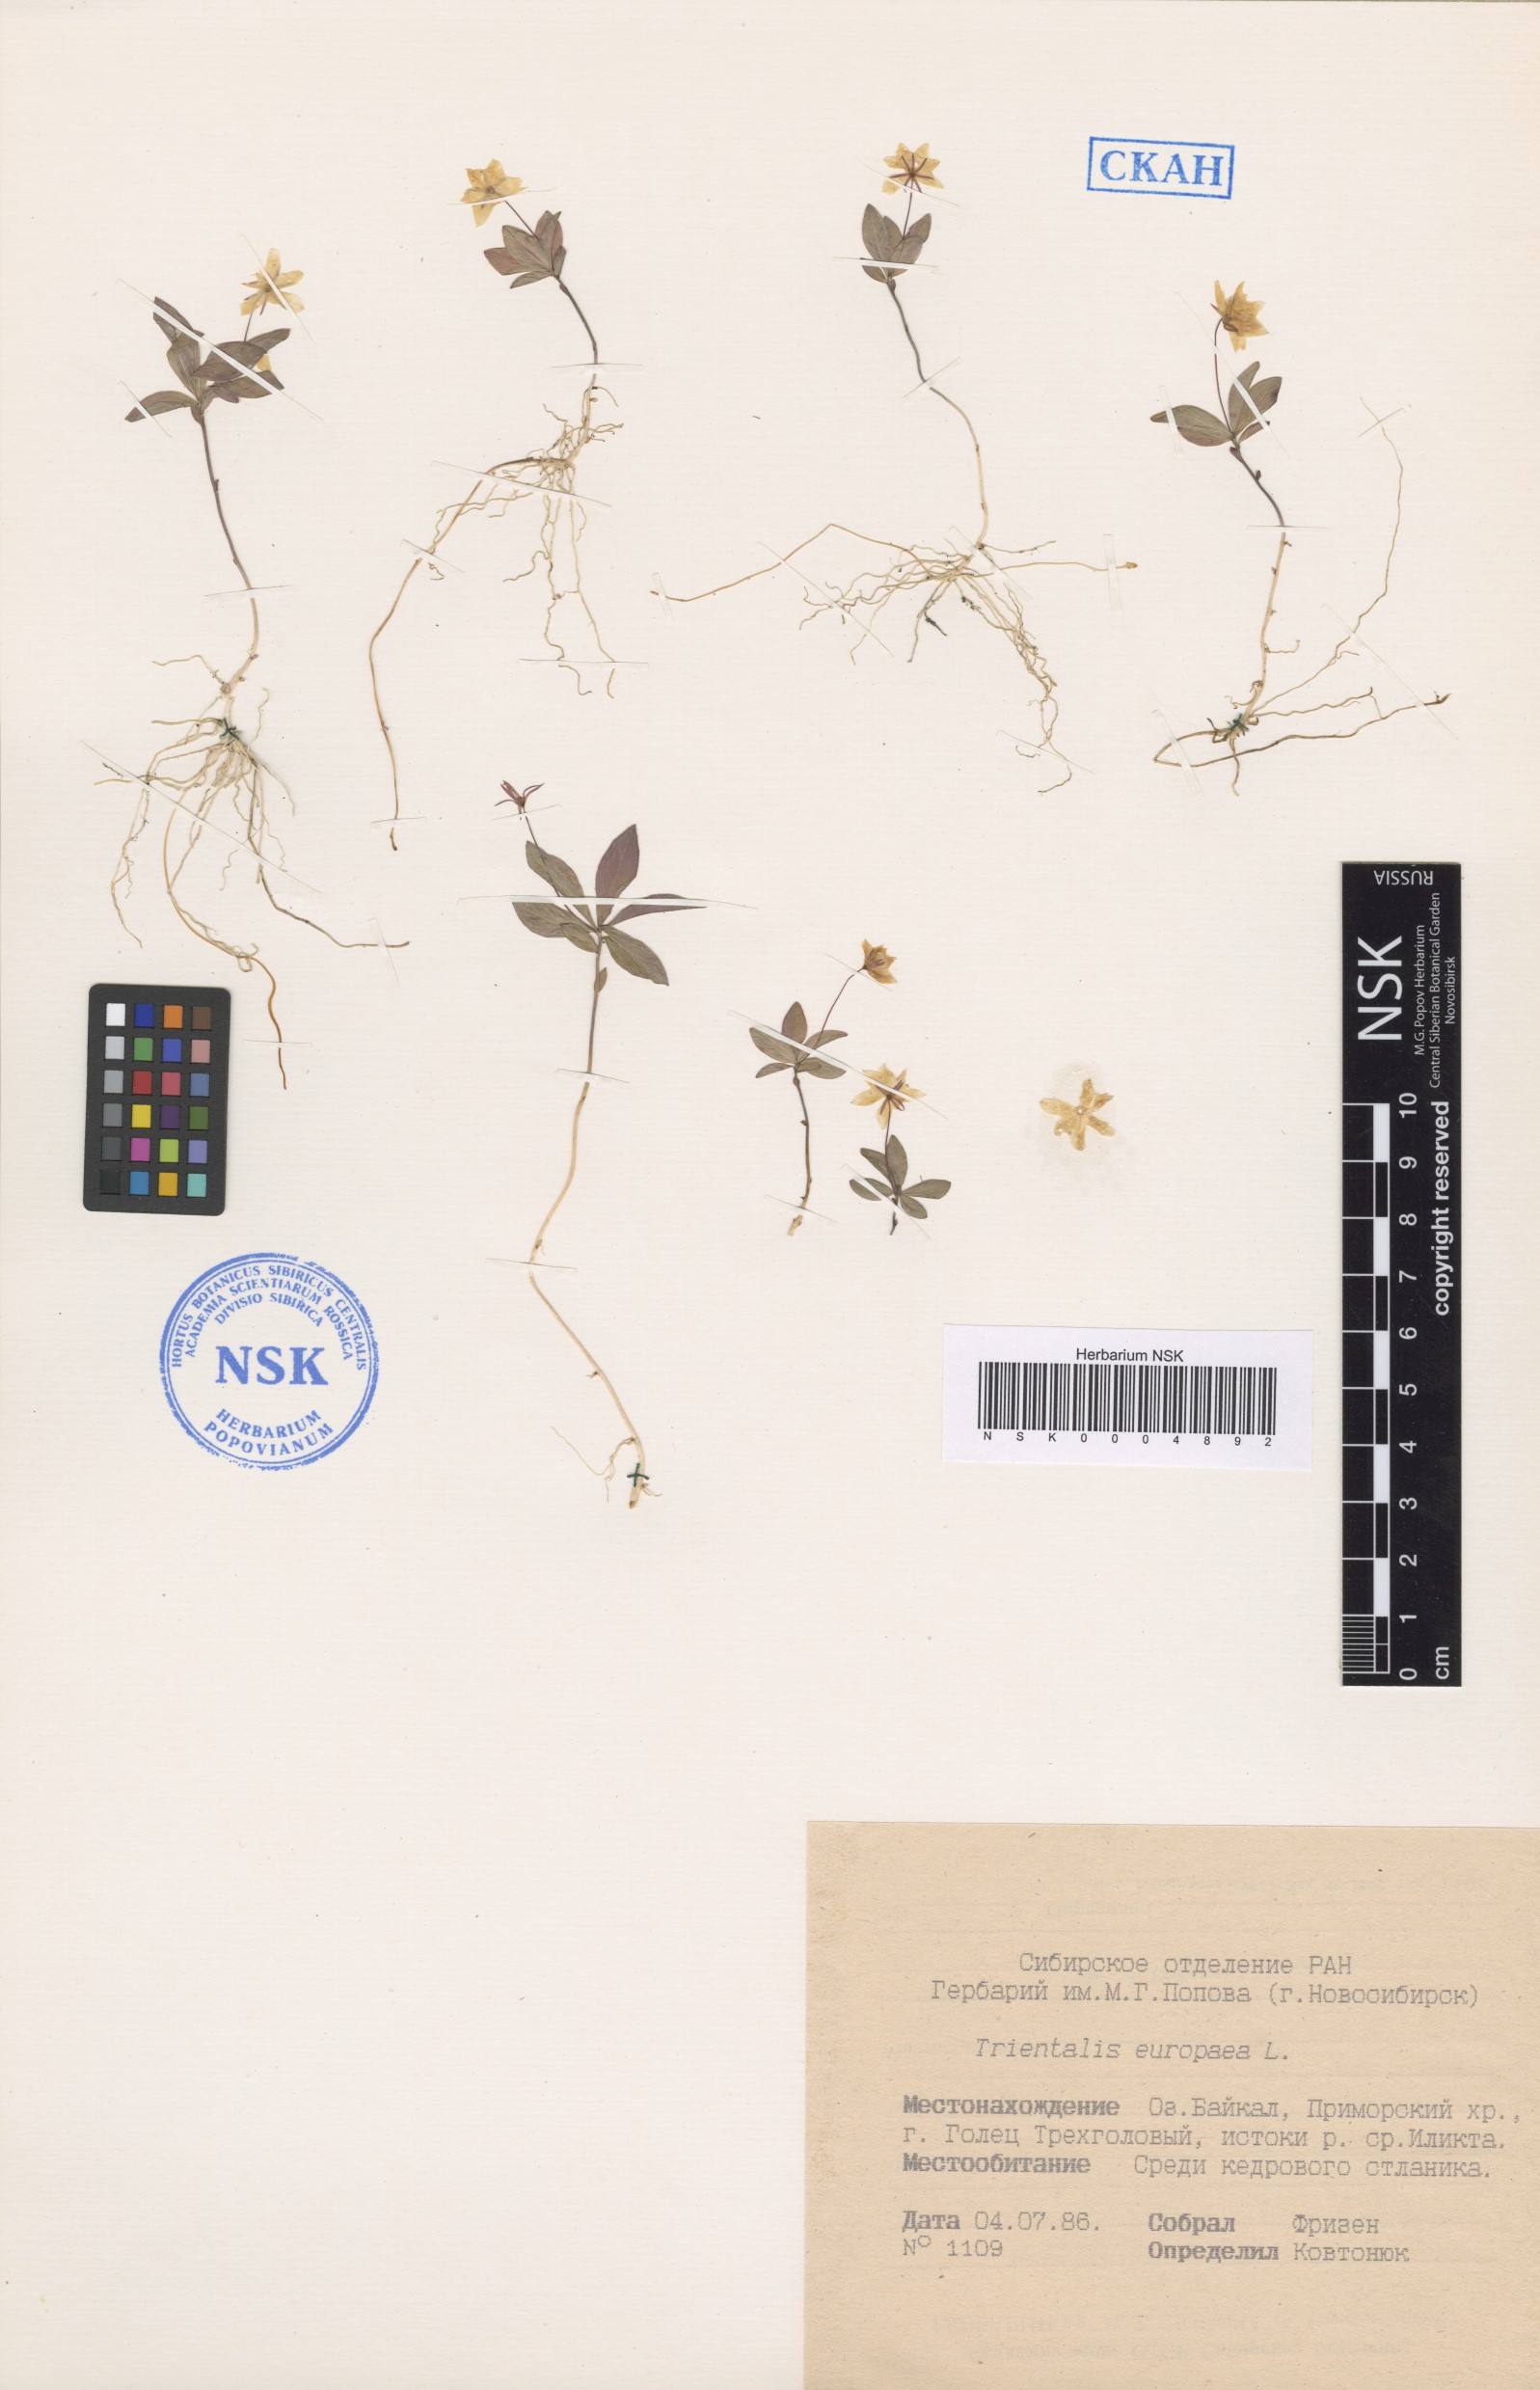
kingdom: Plantae
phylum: Tracheophyta
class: Magnoliopsida
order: Ericales
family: Primulaceae
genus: Lysimachia
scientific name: Lysimachia europaea
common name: Arctic starflower
